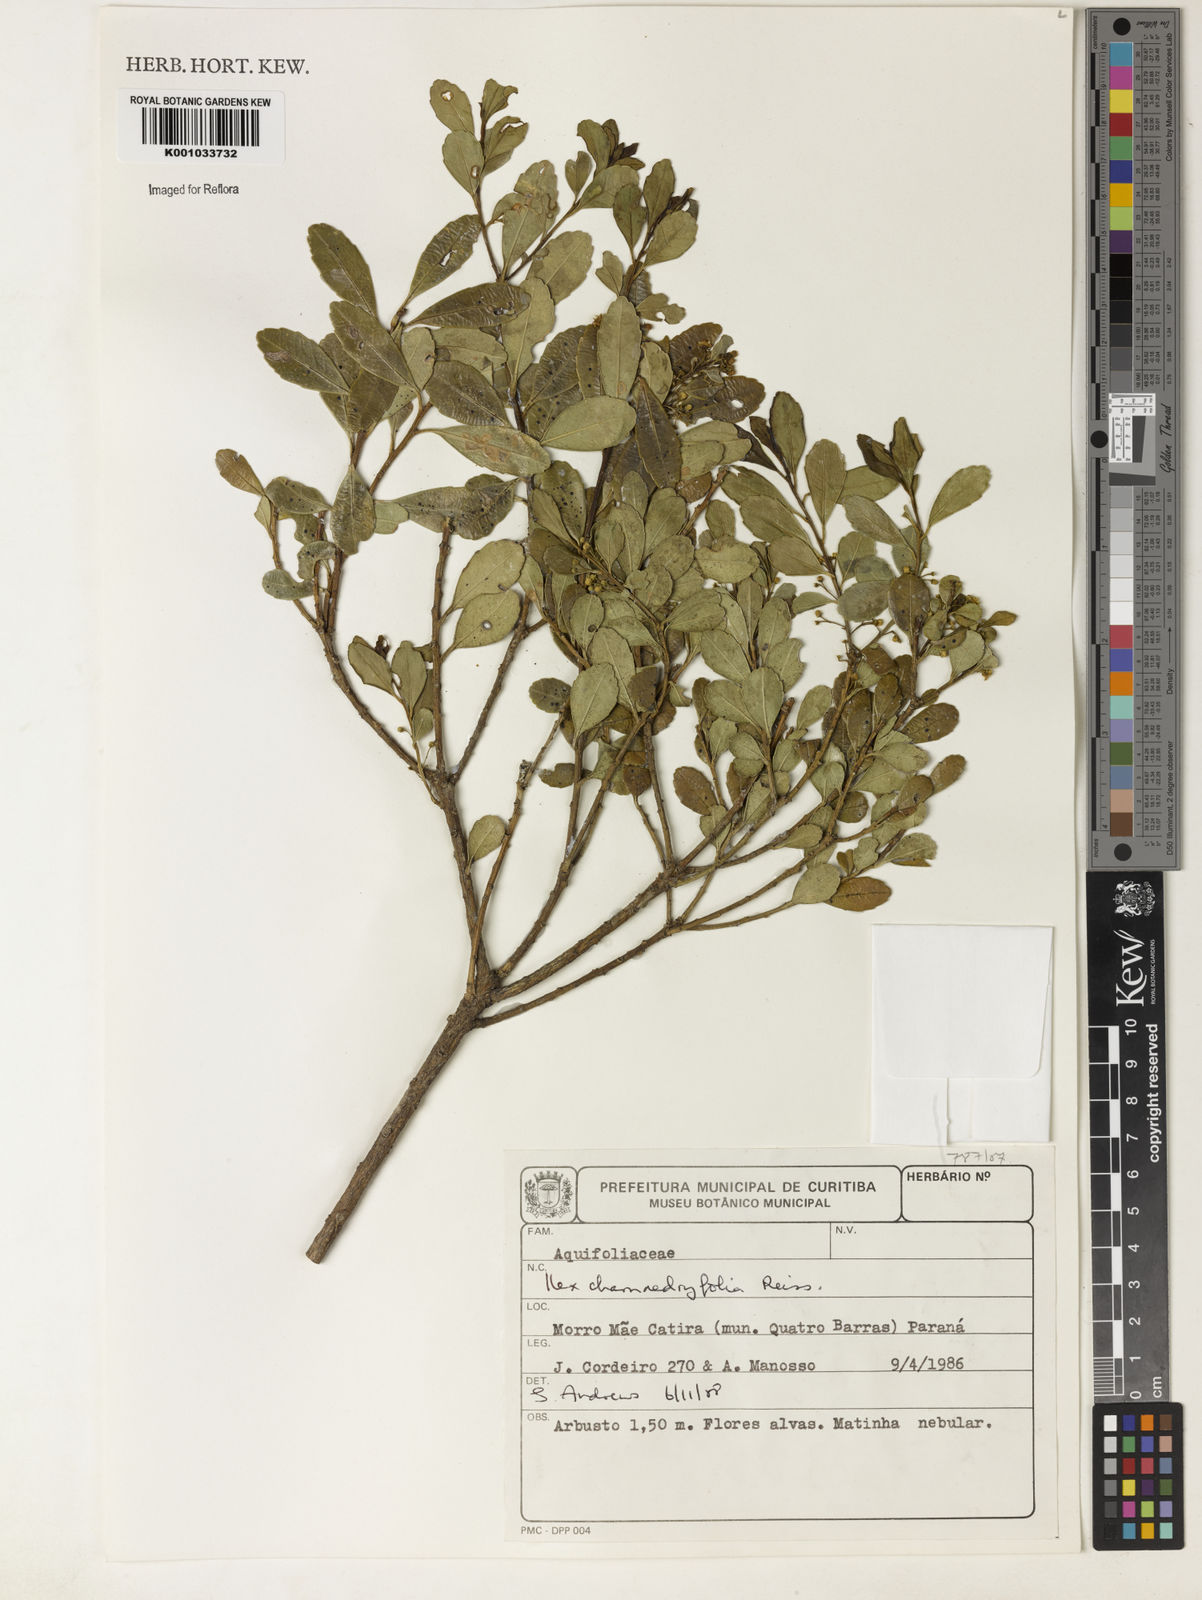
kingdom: Plantae
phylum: Tracheophyta
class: Magnoliopsida
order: Aquifoliales
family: Aquifoliaceae
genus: Ilex
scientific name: Ilex chamaedryfolia
